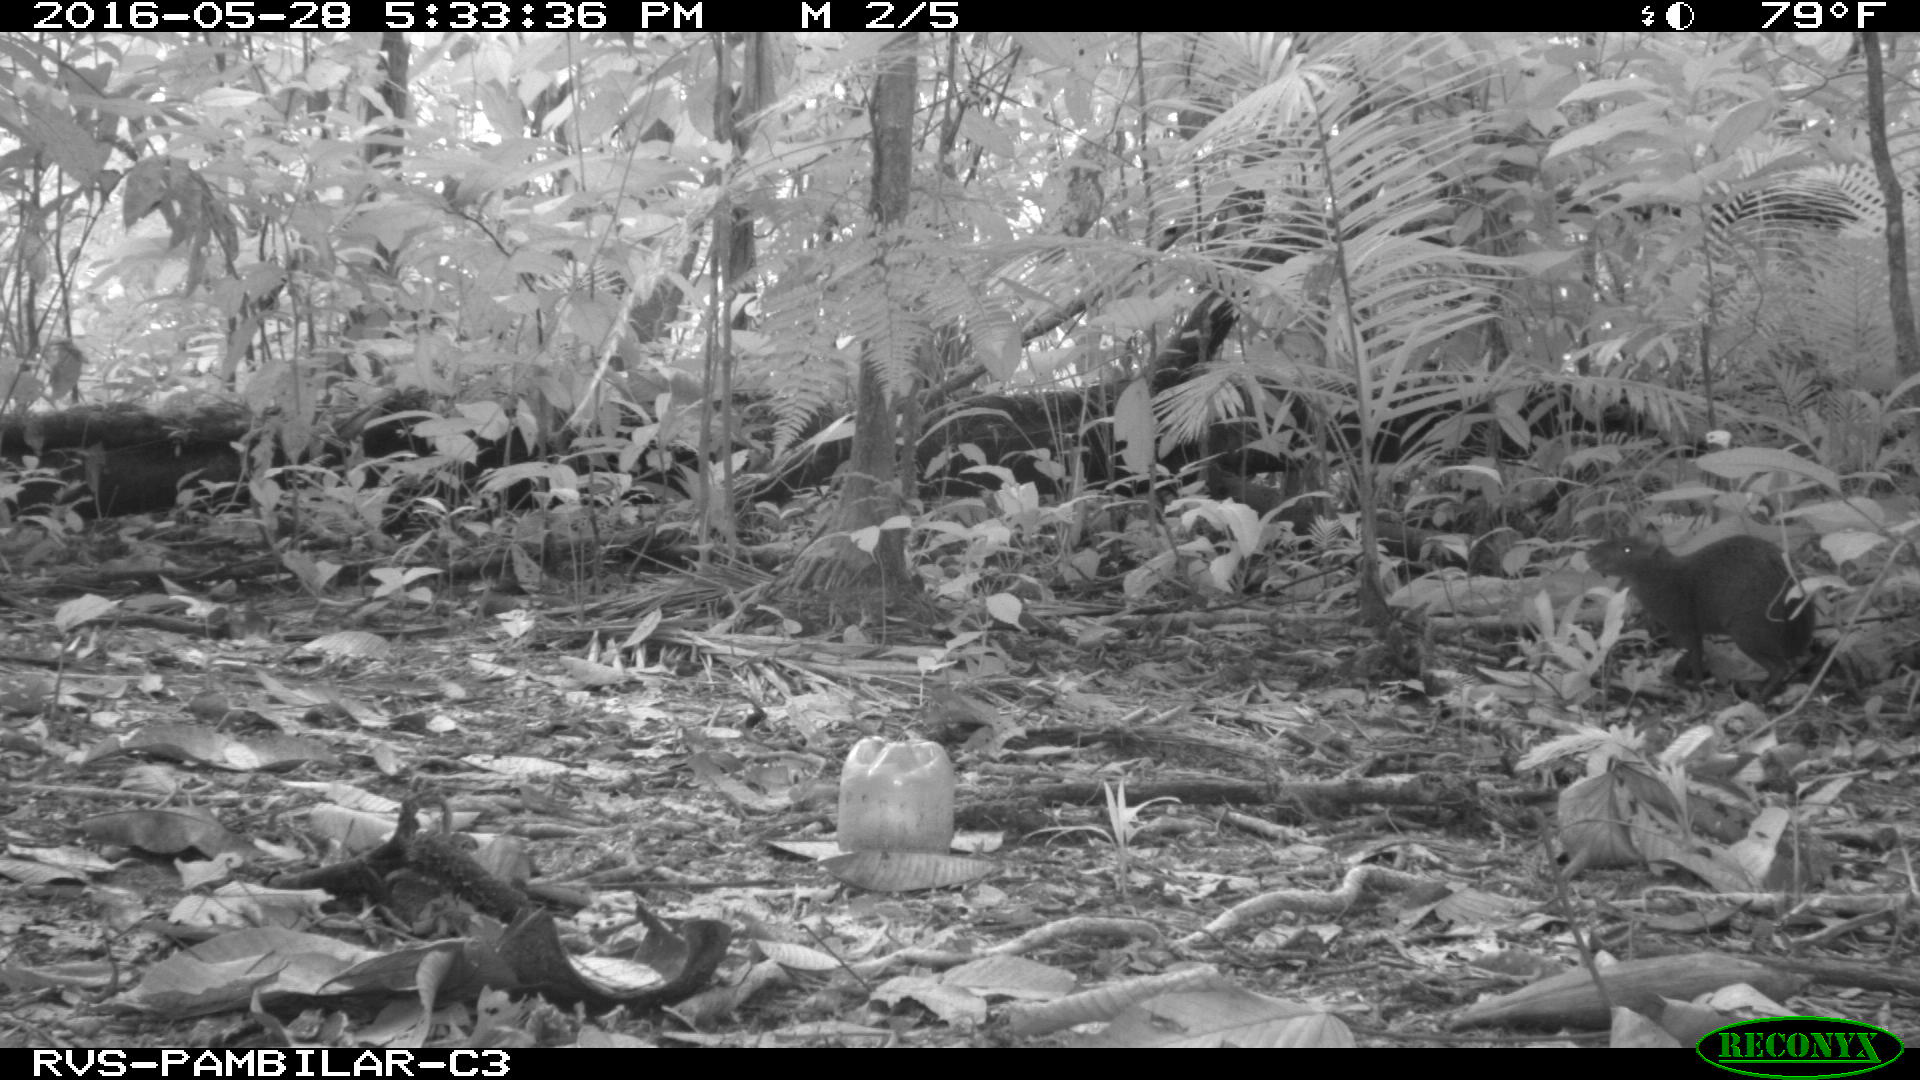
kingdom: Animalia
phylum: Chordata
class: Mammalia
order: Rodentia
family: Dasyproctidae
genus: Dasyprocta
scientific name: Dasyprocta punctata
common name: Central american agouti
